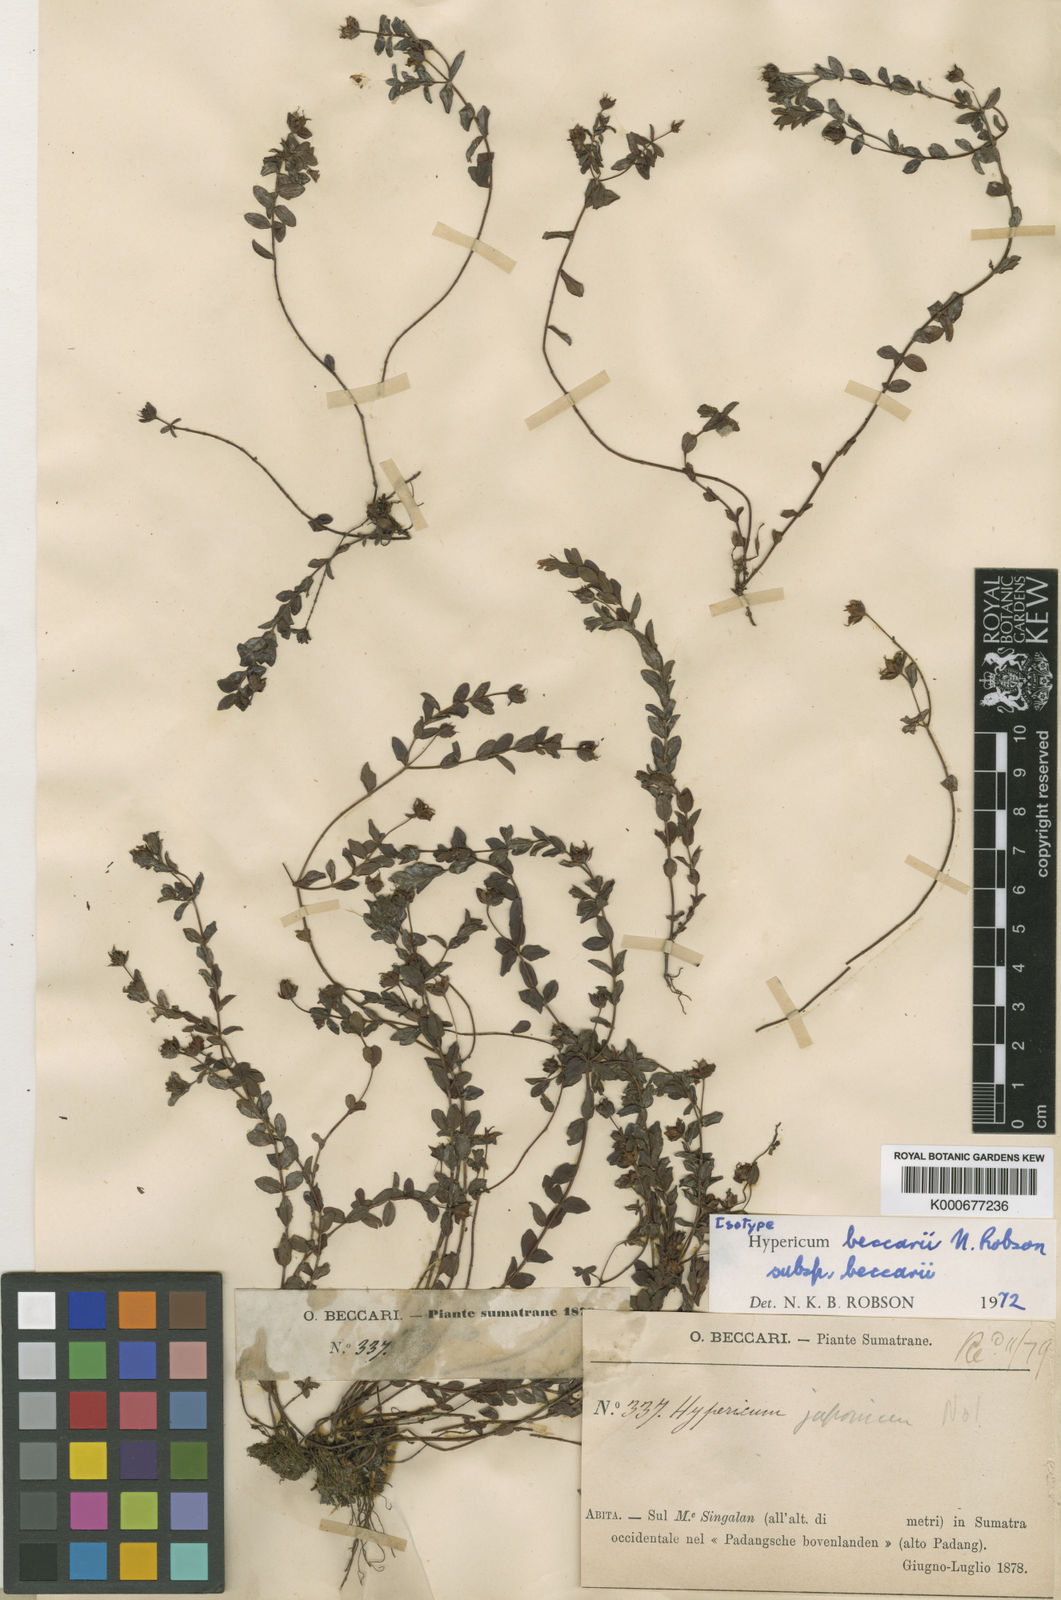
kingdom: Plantae
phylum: Tracheophyta
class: Magnoliopsida
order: Malpighiales
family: Hypericaceae
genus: Hypericum
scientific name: Hypericum beccarii
